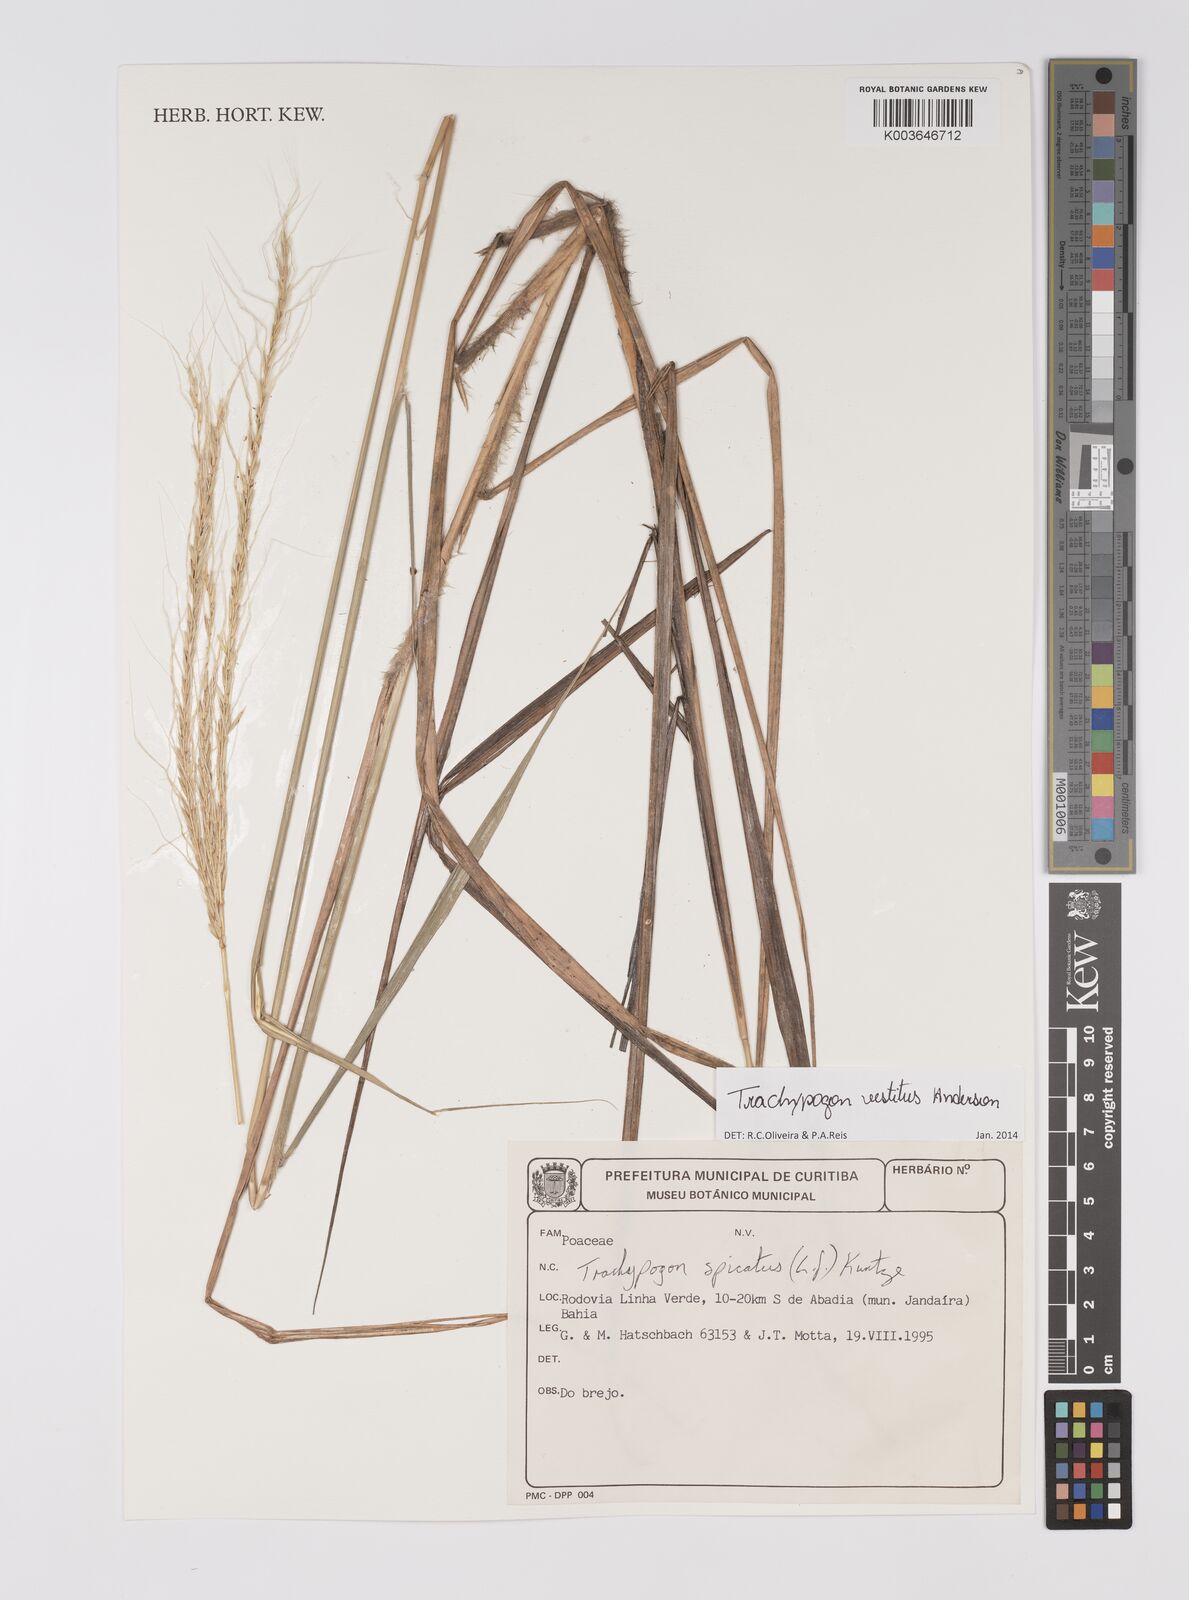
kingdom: Plantae
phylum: Tracheophyta
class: Liliopsida
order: Poales
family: Poaceae
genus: Trachypogon
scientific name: Trachypogon vestitus
